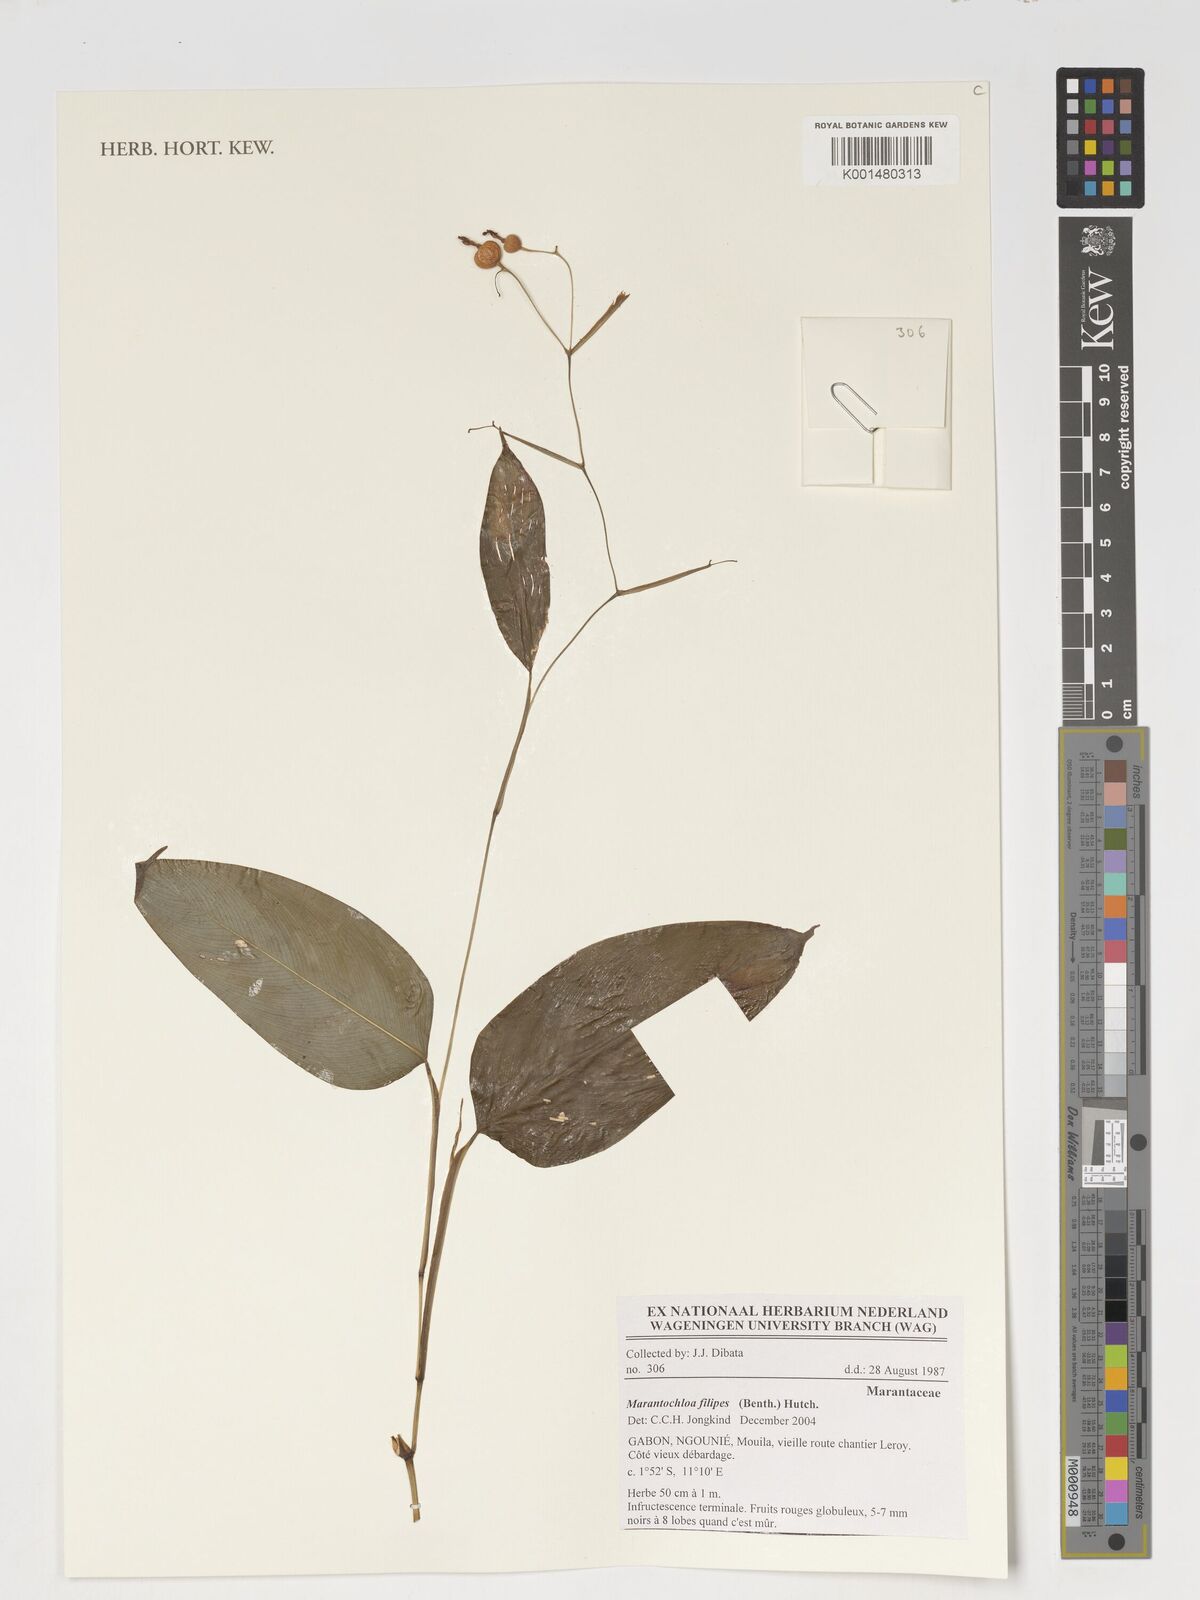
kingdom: Plantae
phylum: Tracheophyta
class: Liliopsida
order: Zingiberales
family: Marantaceae
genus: Marantochloa
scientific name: Marantochloa filipes
